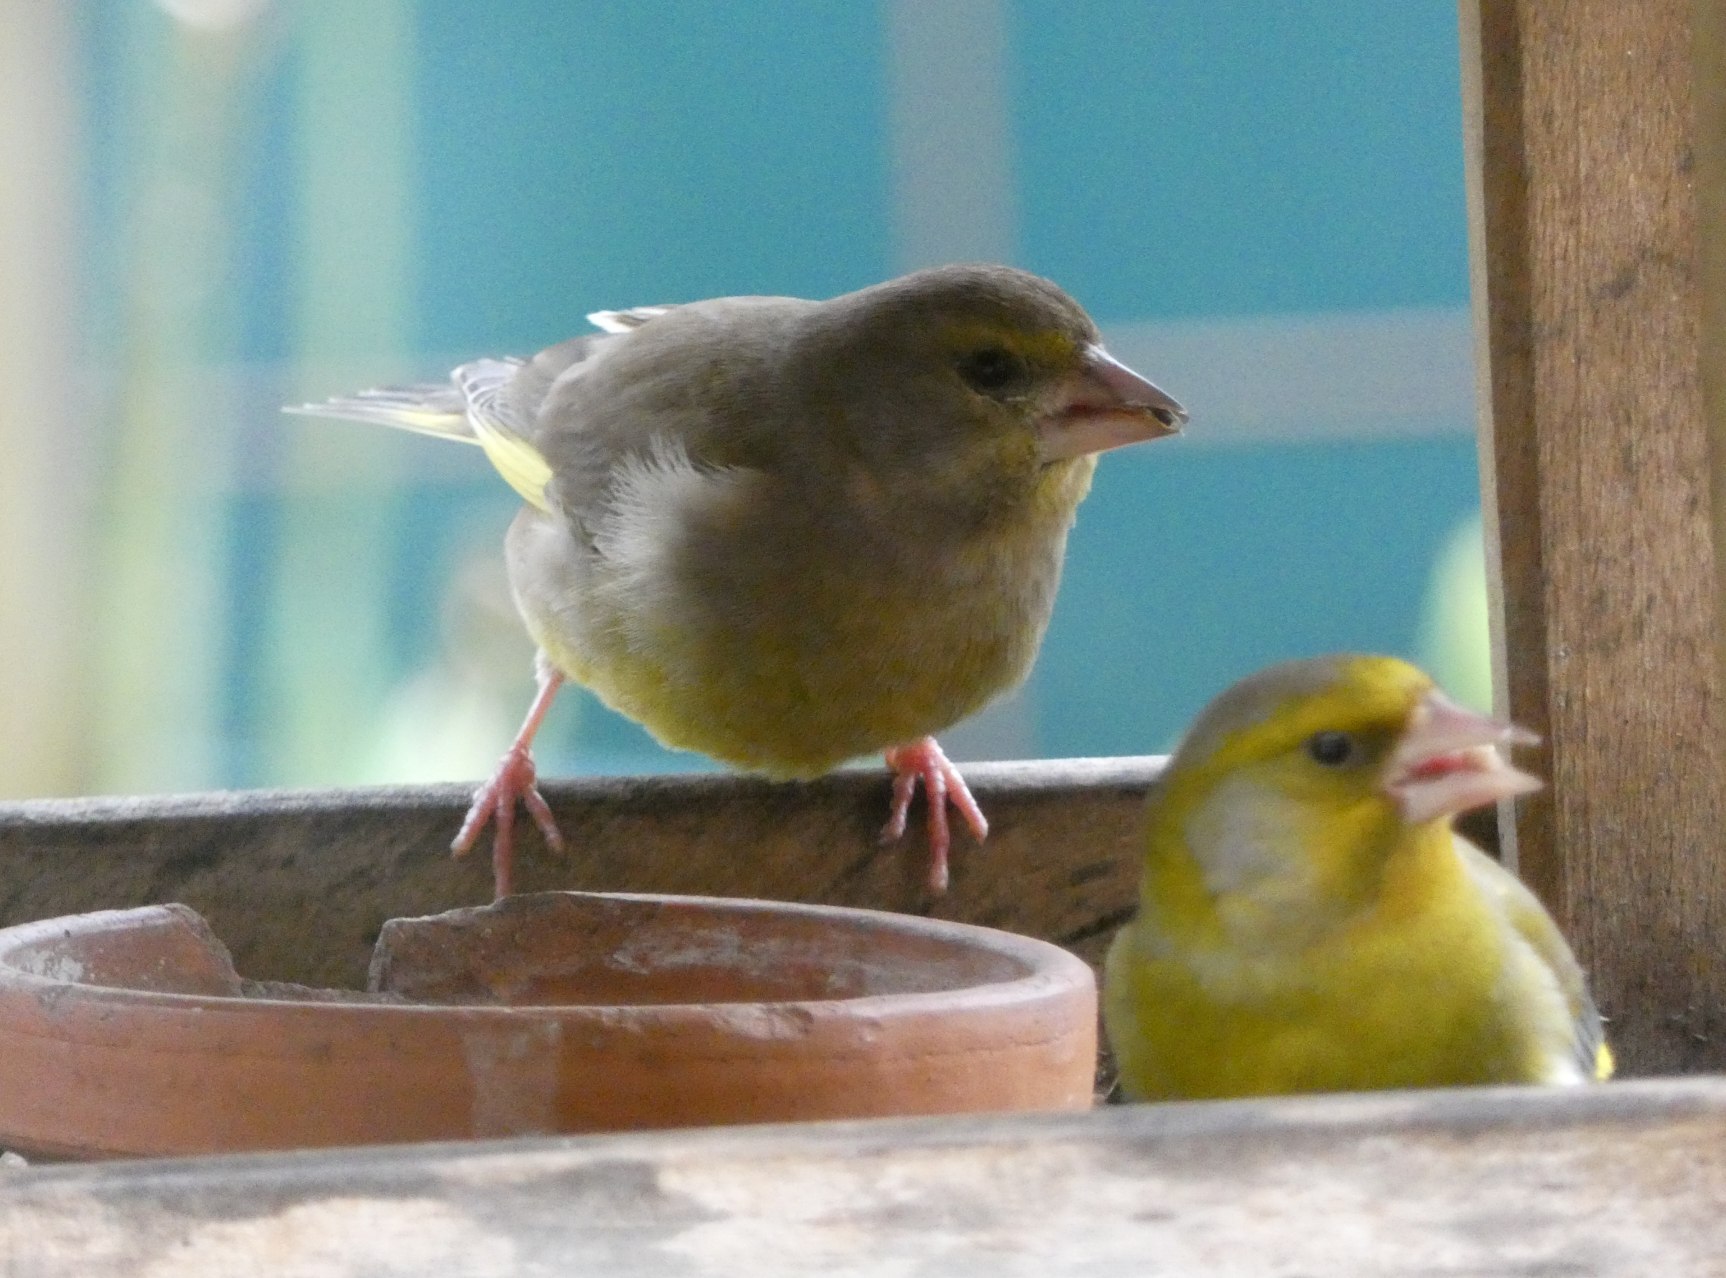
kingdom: Plantae
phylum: Tracheophyta
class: Liliopsida
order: Poales
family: Poaceae
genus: Chloris
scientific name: Chloris chloris
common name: Grønirisk
